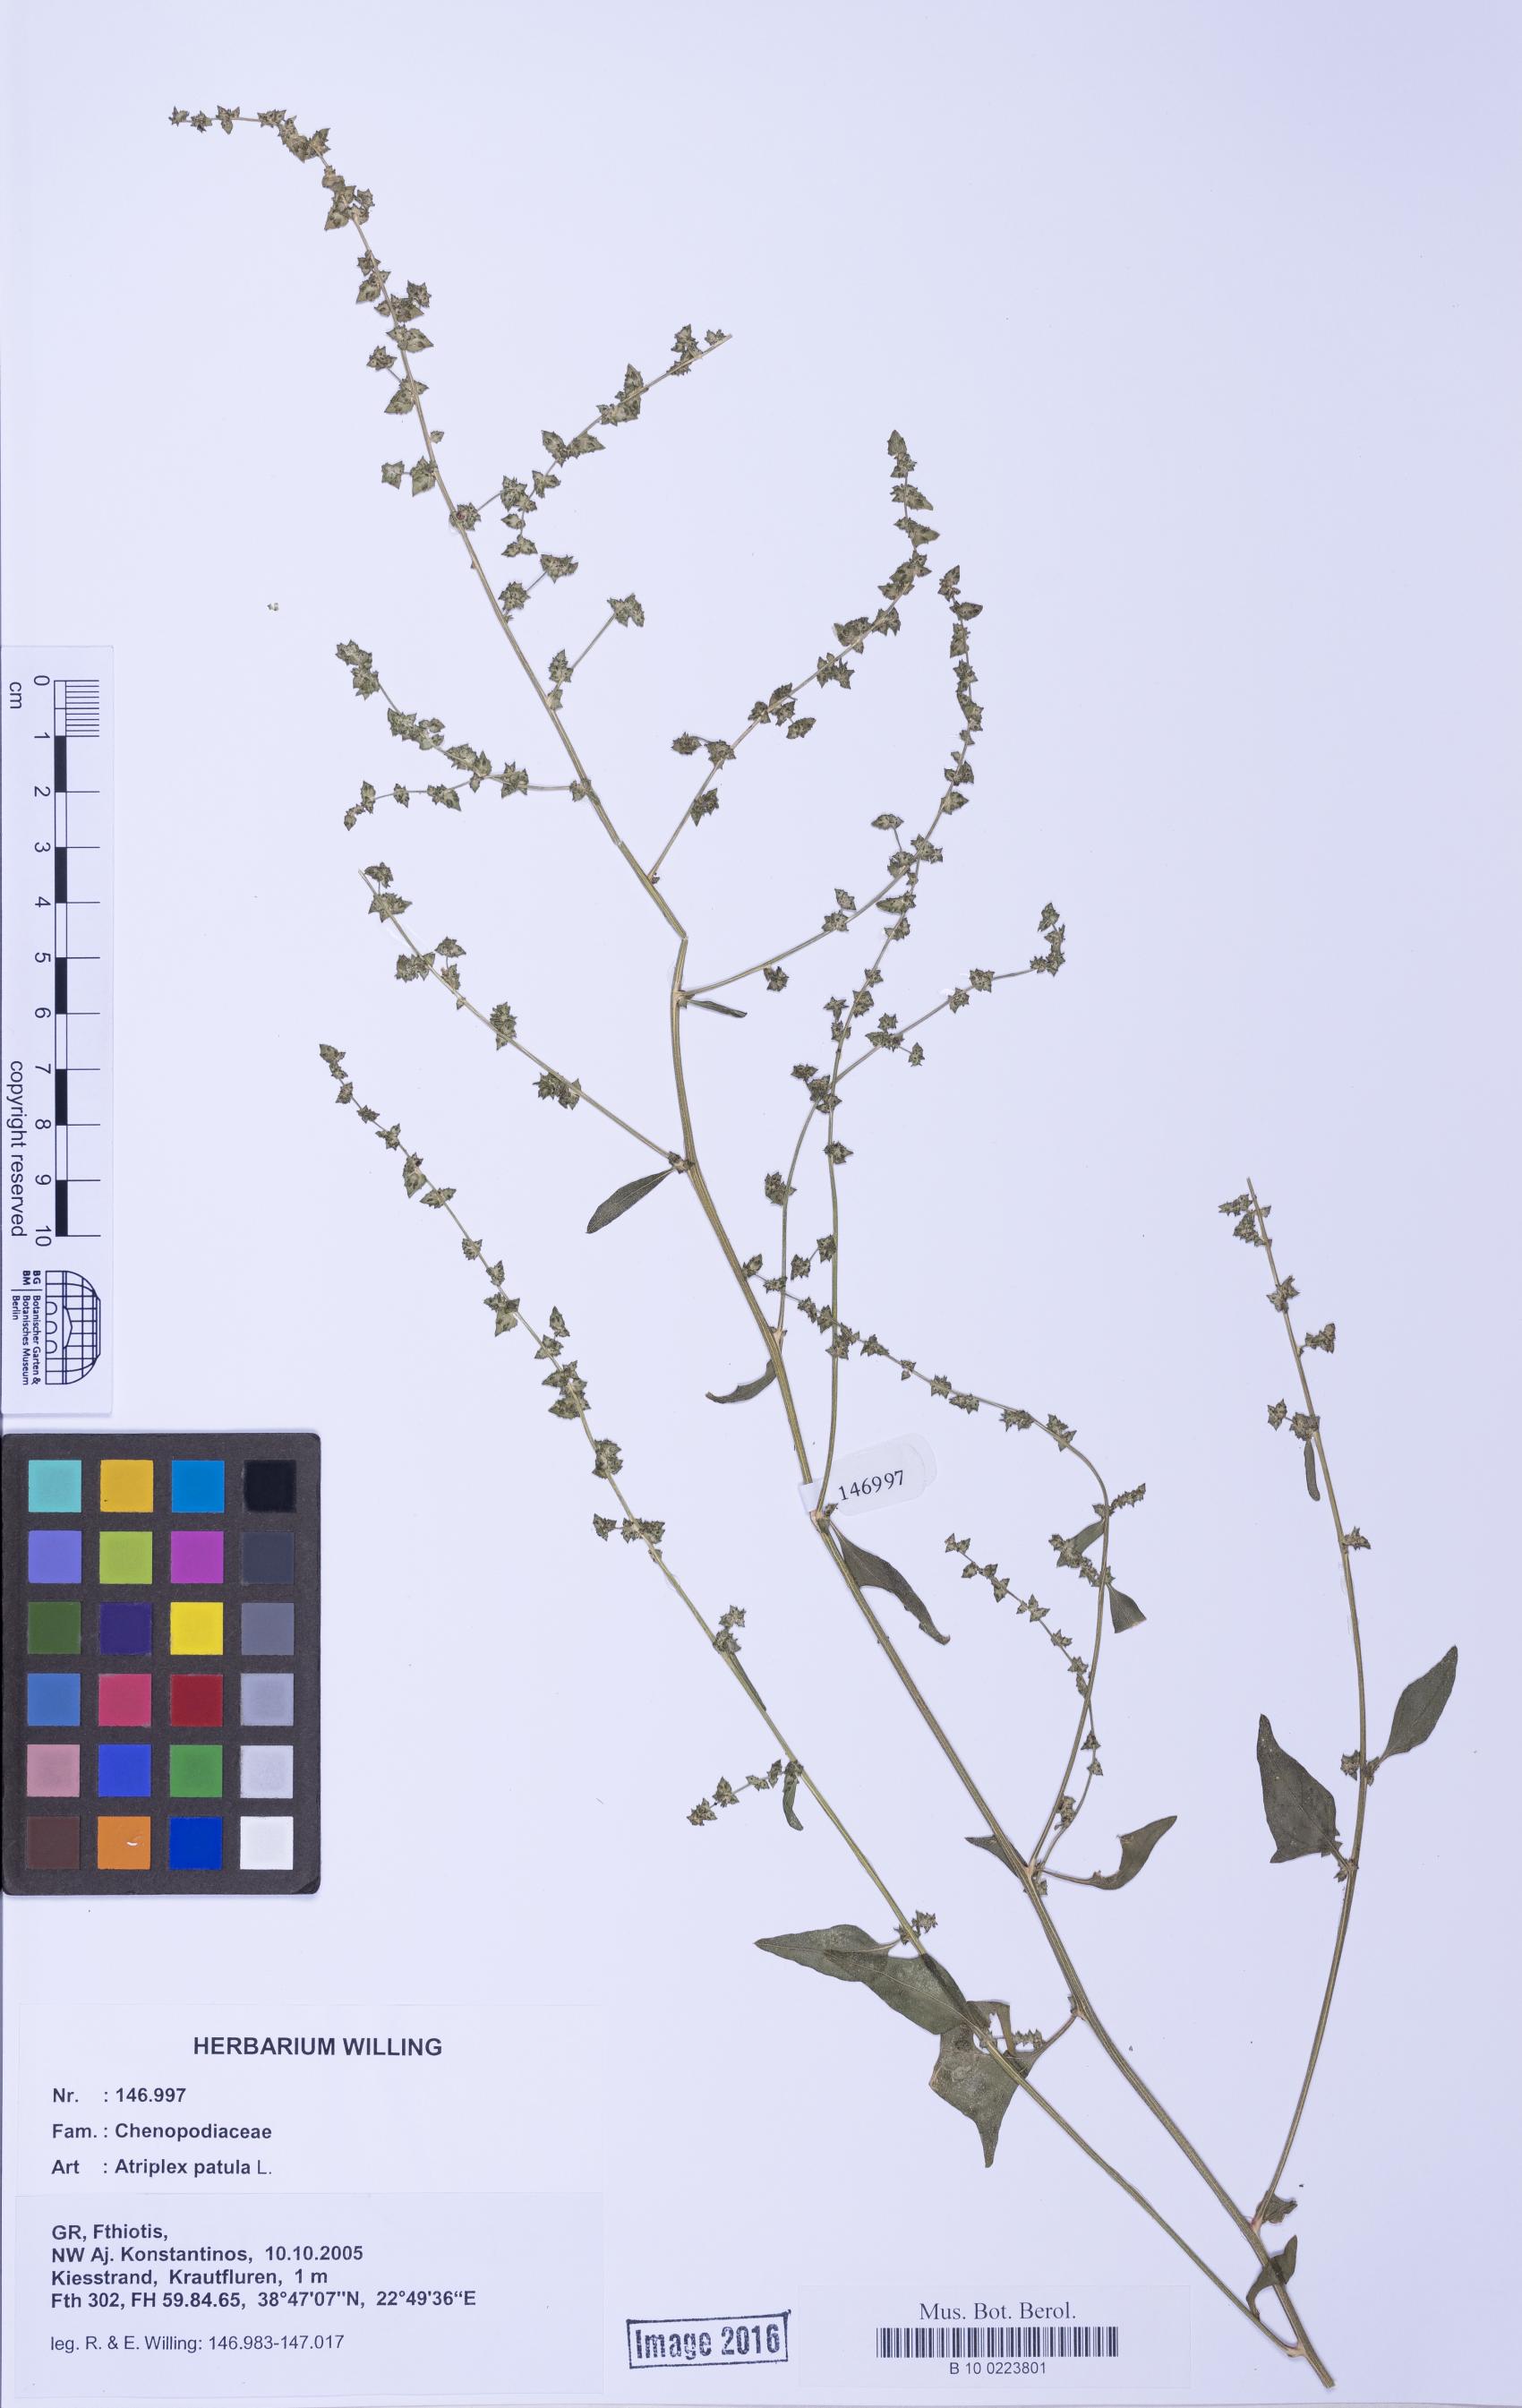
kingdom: Plantae
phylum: Tracheophyta
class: Magnoliopsida
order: Caryophyllales
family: Amaranthaceae
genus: Atriplex
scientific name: Atriplex prostrata
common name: Spear-leaved orache
